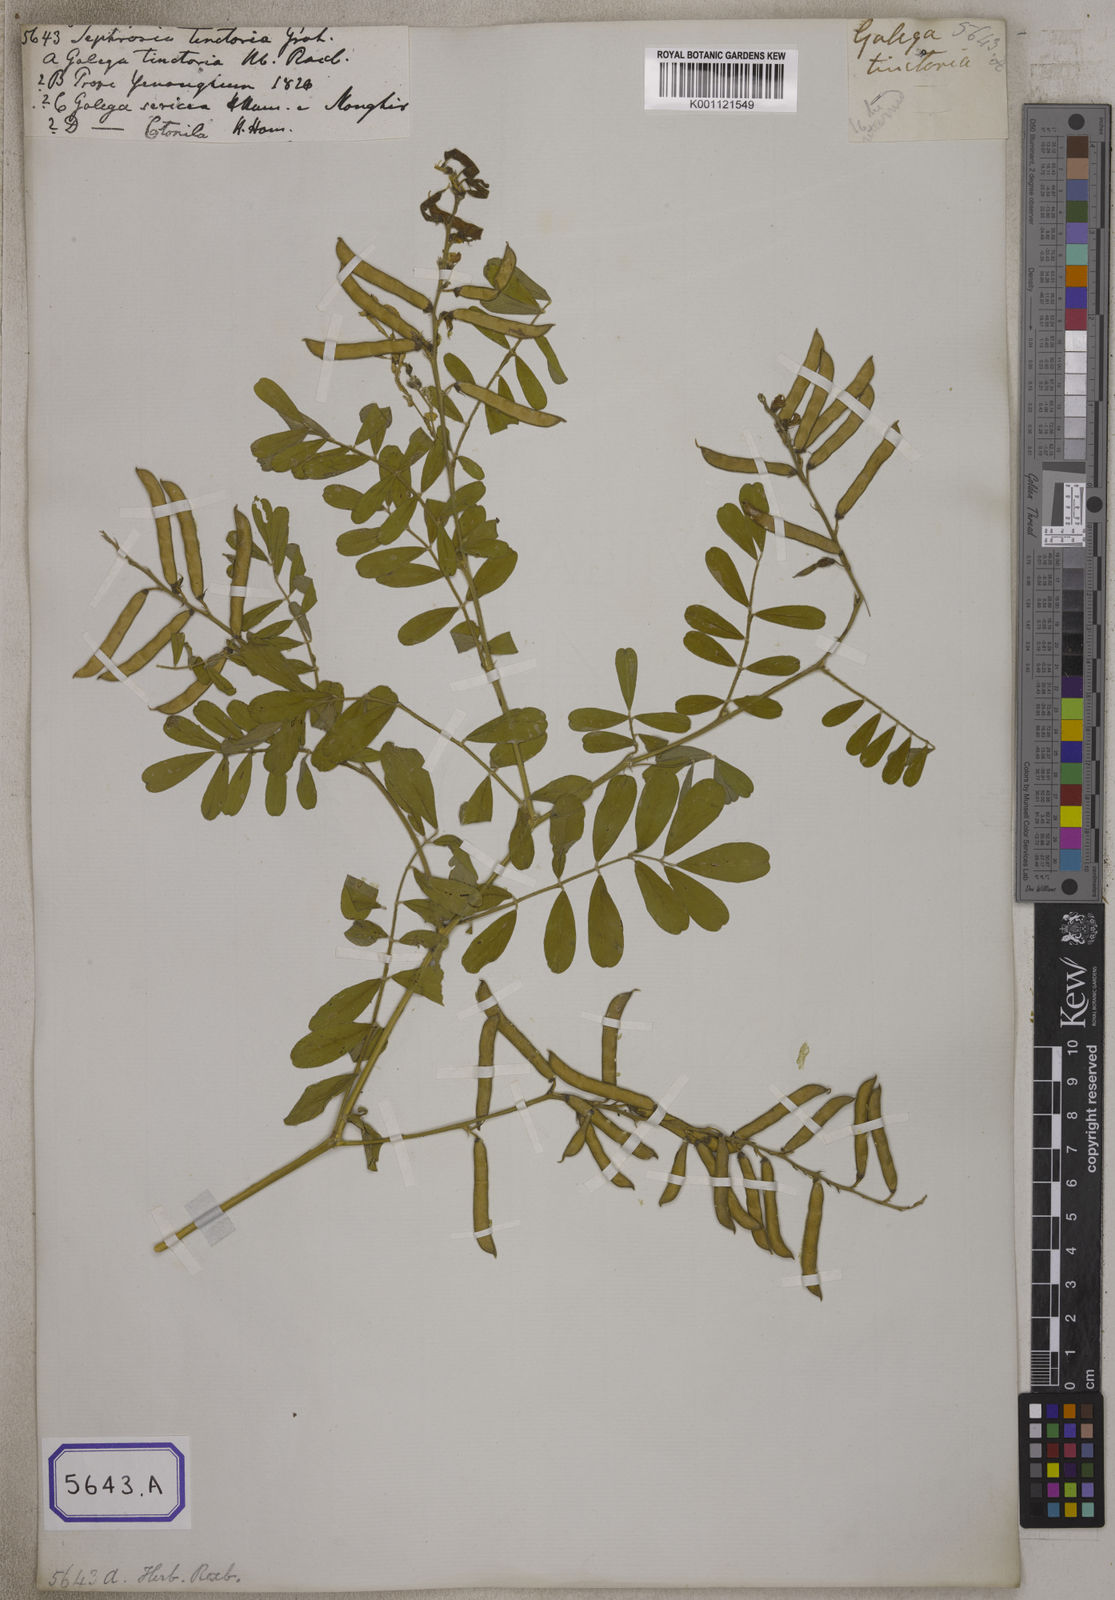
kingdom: Plantae
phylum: Tracheophyta
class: Magnoliopsida
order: Fabales
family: Fabaceae
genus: Tephrosia
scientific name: Tephrosia purpurea
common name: Fishpoison
